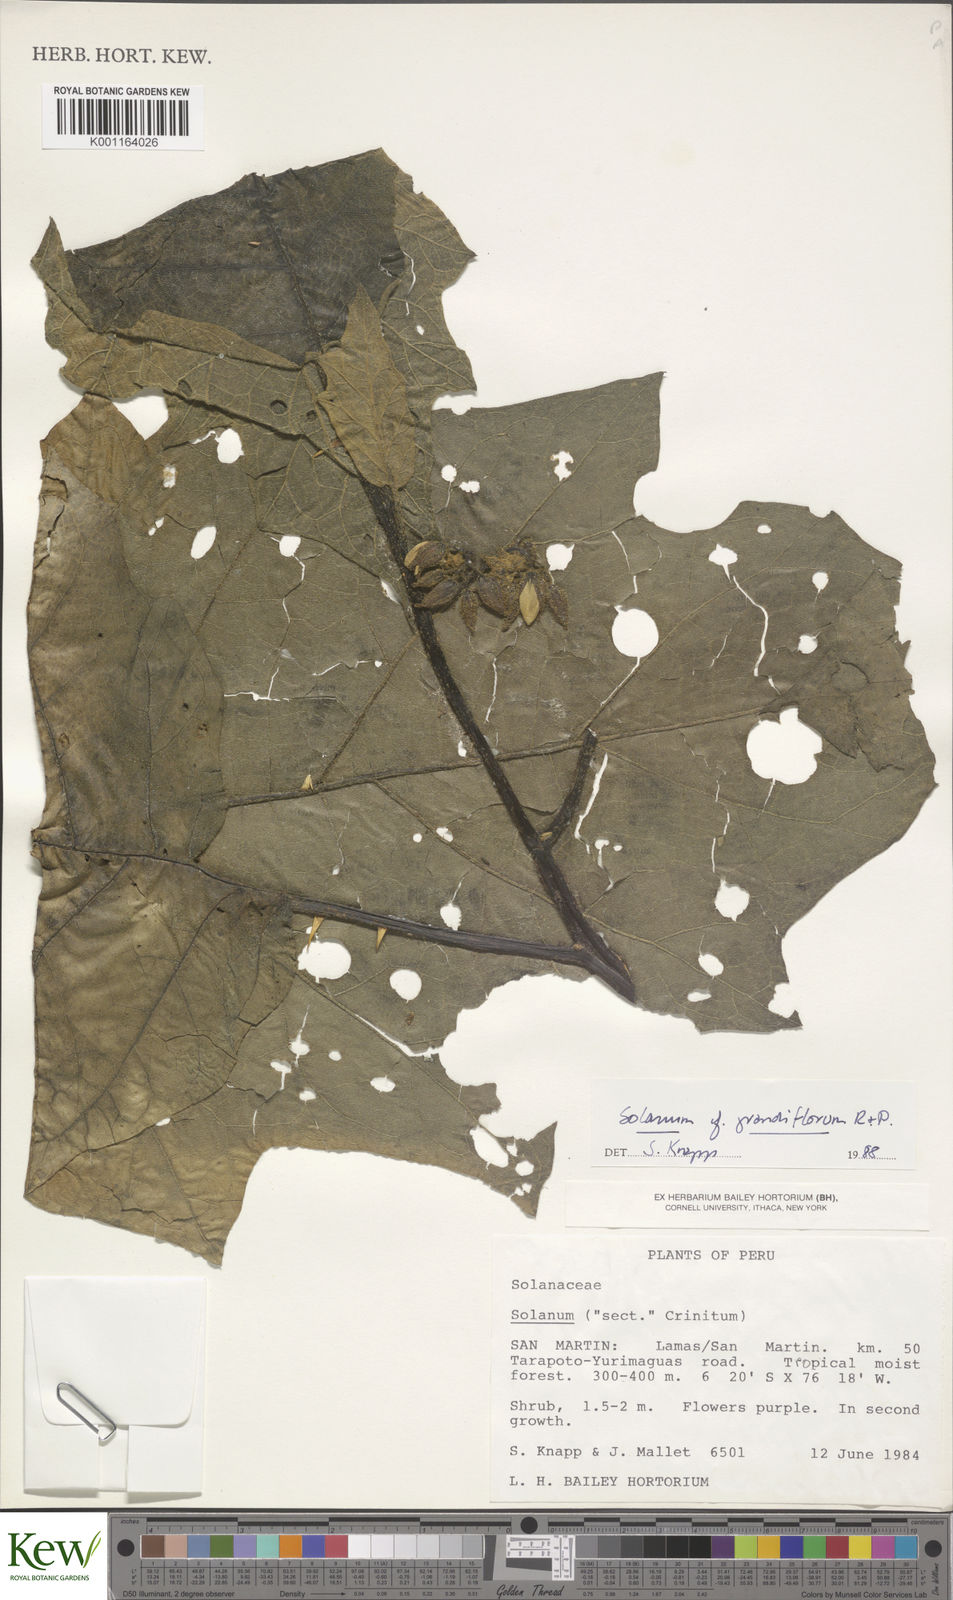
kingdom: Plantae
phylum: Tracheophyta
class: Magnoliopsida
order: Solanales
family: Solanaceae
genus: Solanum
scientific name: Solanum grandiflorum
